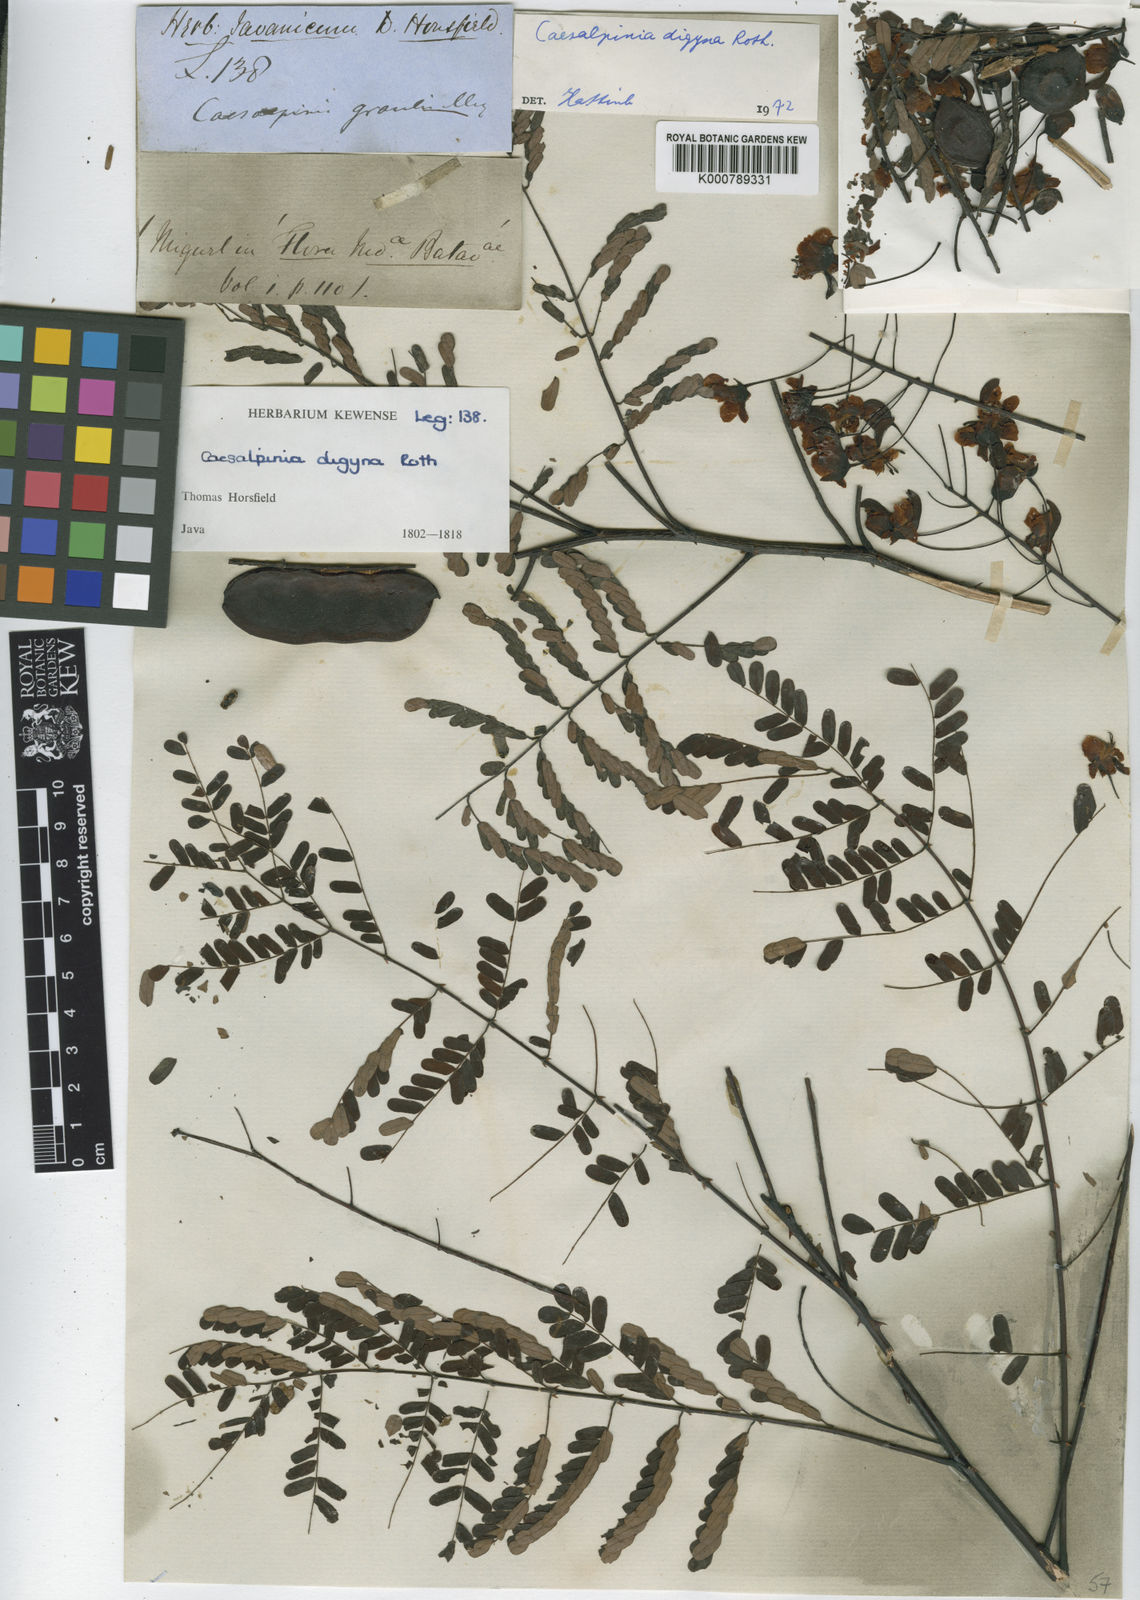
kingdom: Plantae
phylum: Tracheophyta
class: Magnoliopsida
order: Fabales
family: Fabaceae
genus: Moullava
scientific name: Moullava digyna
